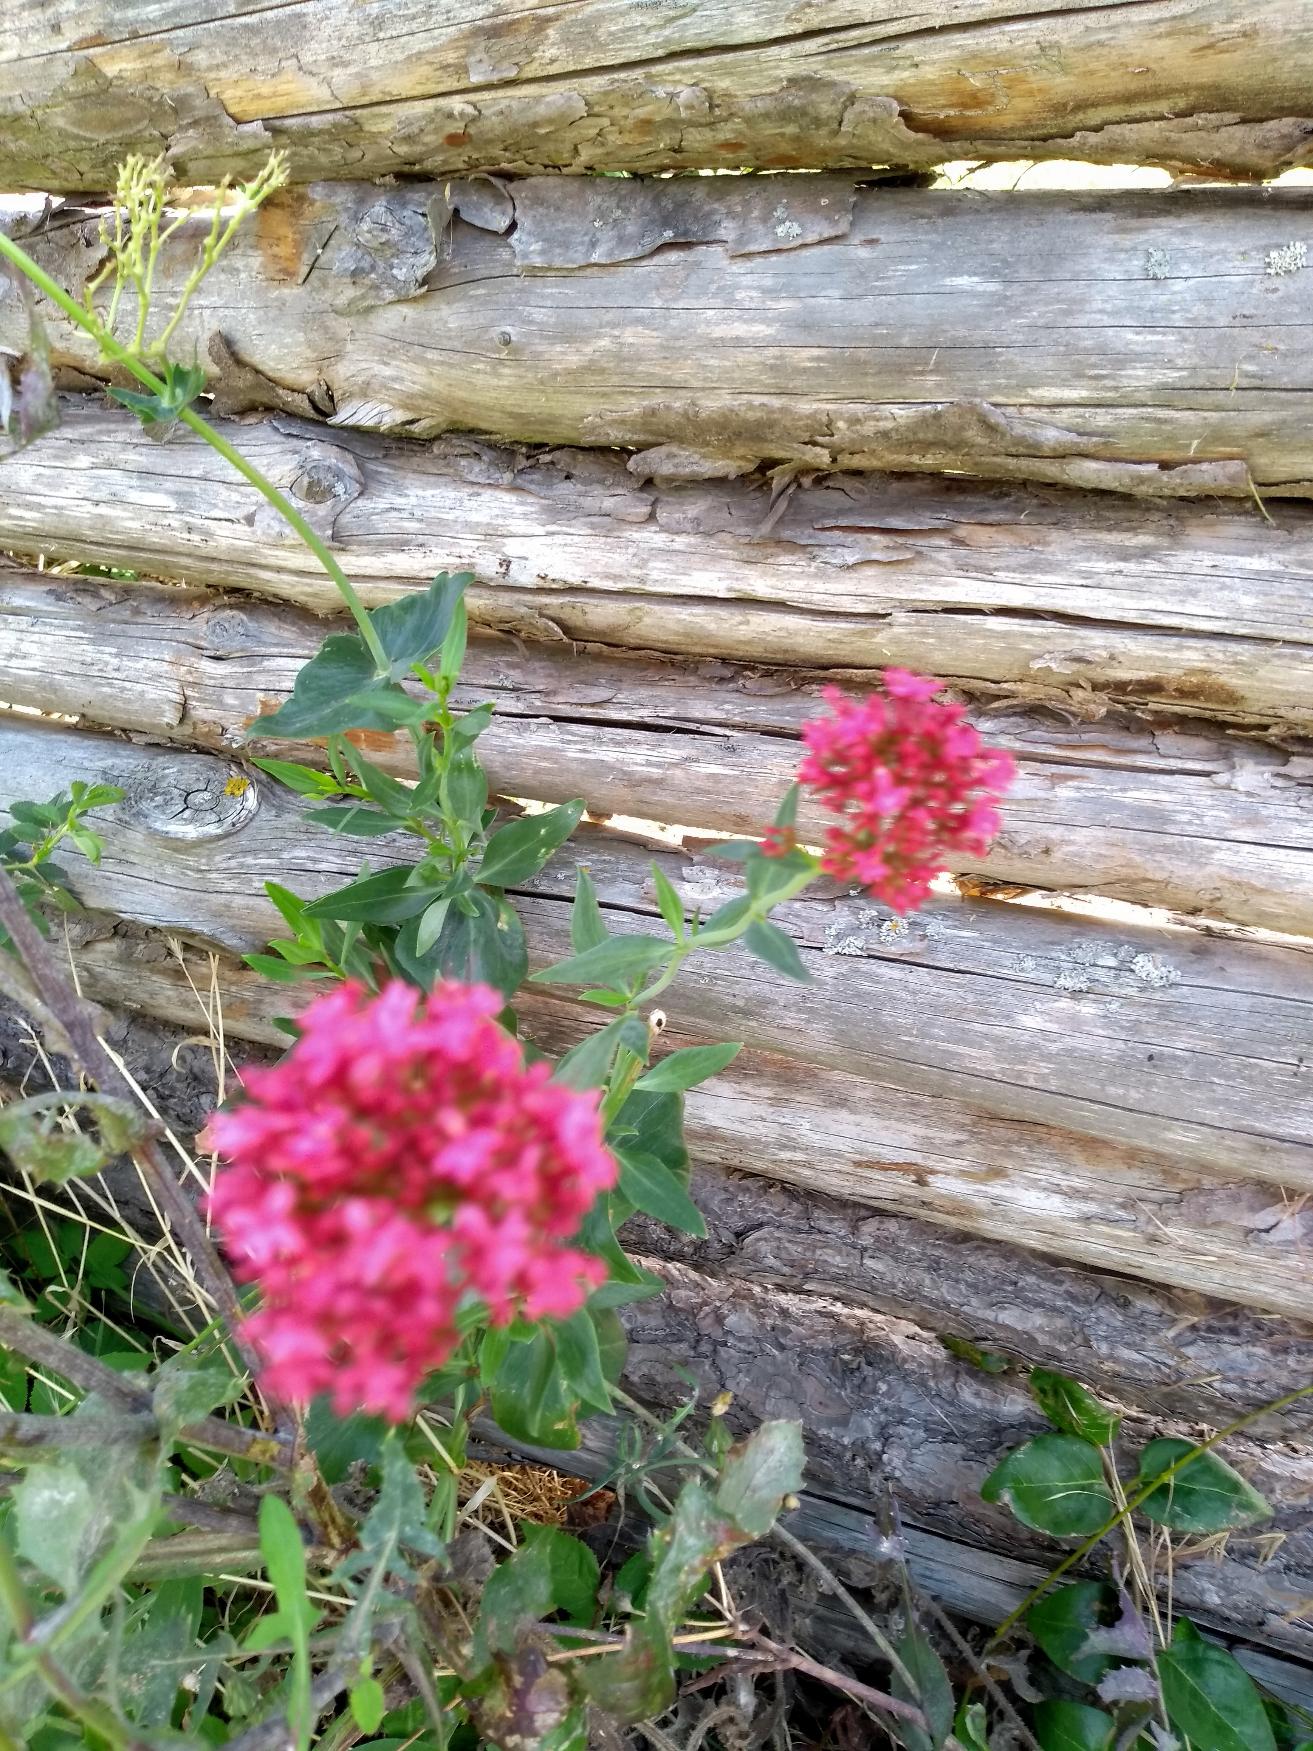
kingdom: Plantae
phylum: Tracheophyta
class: Magnoliopsida
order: Dipsacales
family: Caprifoliaceae
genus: Centranthus
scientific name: Centranthus ruber
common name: Sporebaldrian
